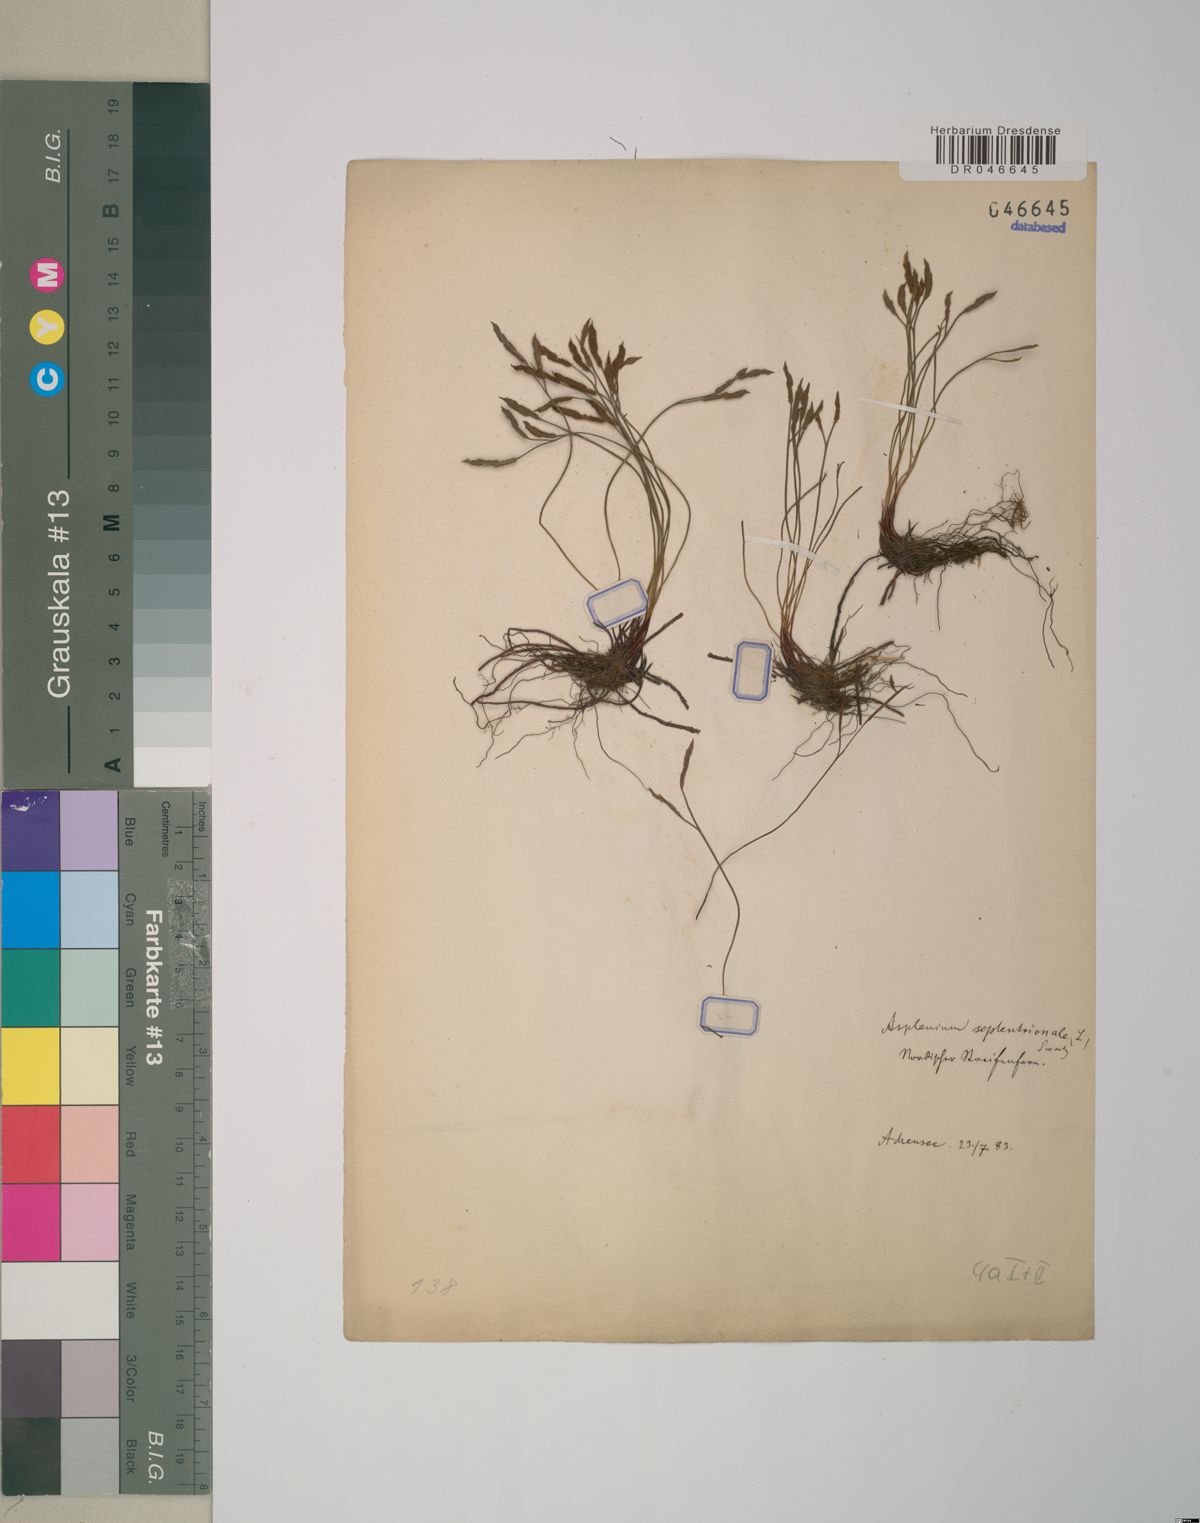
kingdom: Plantae
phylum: Tracheophyta
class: Polypodiopsida
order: Polypodiales
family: Aspleniaceae
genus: Asplenium
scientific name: Asplenium septentrionale
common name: Forked spleenwort
